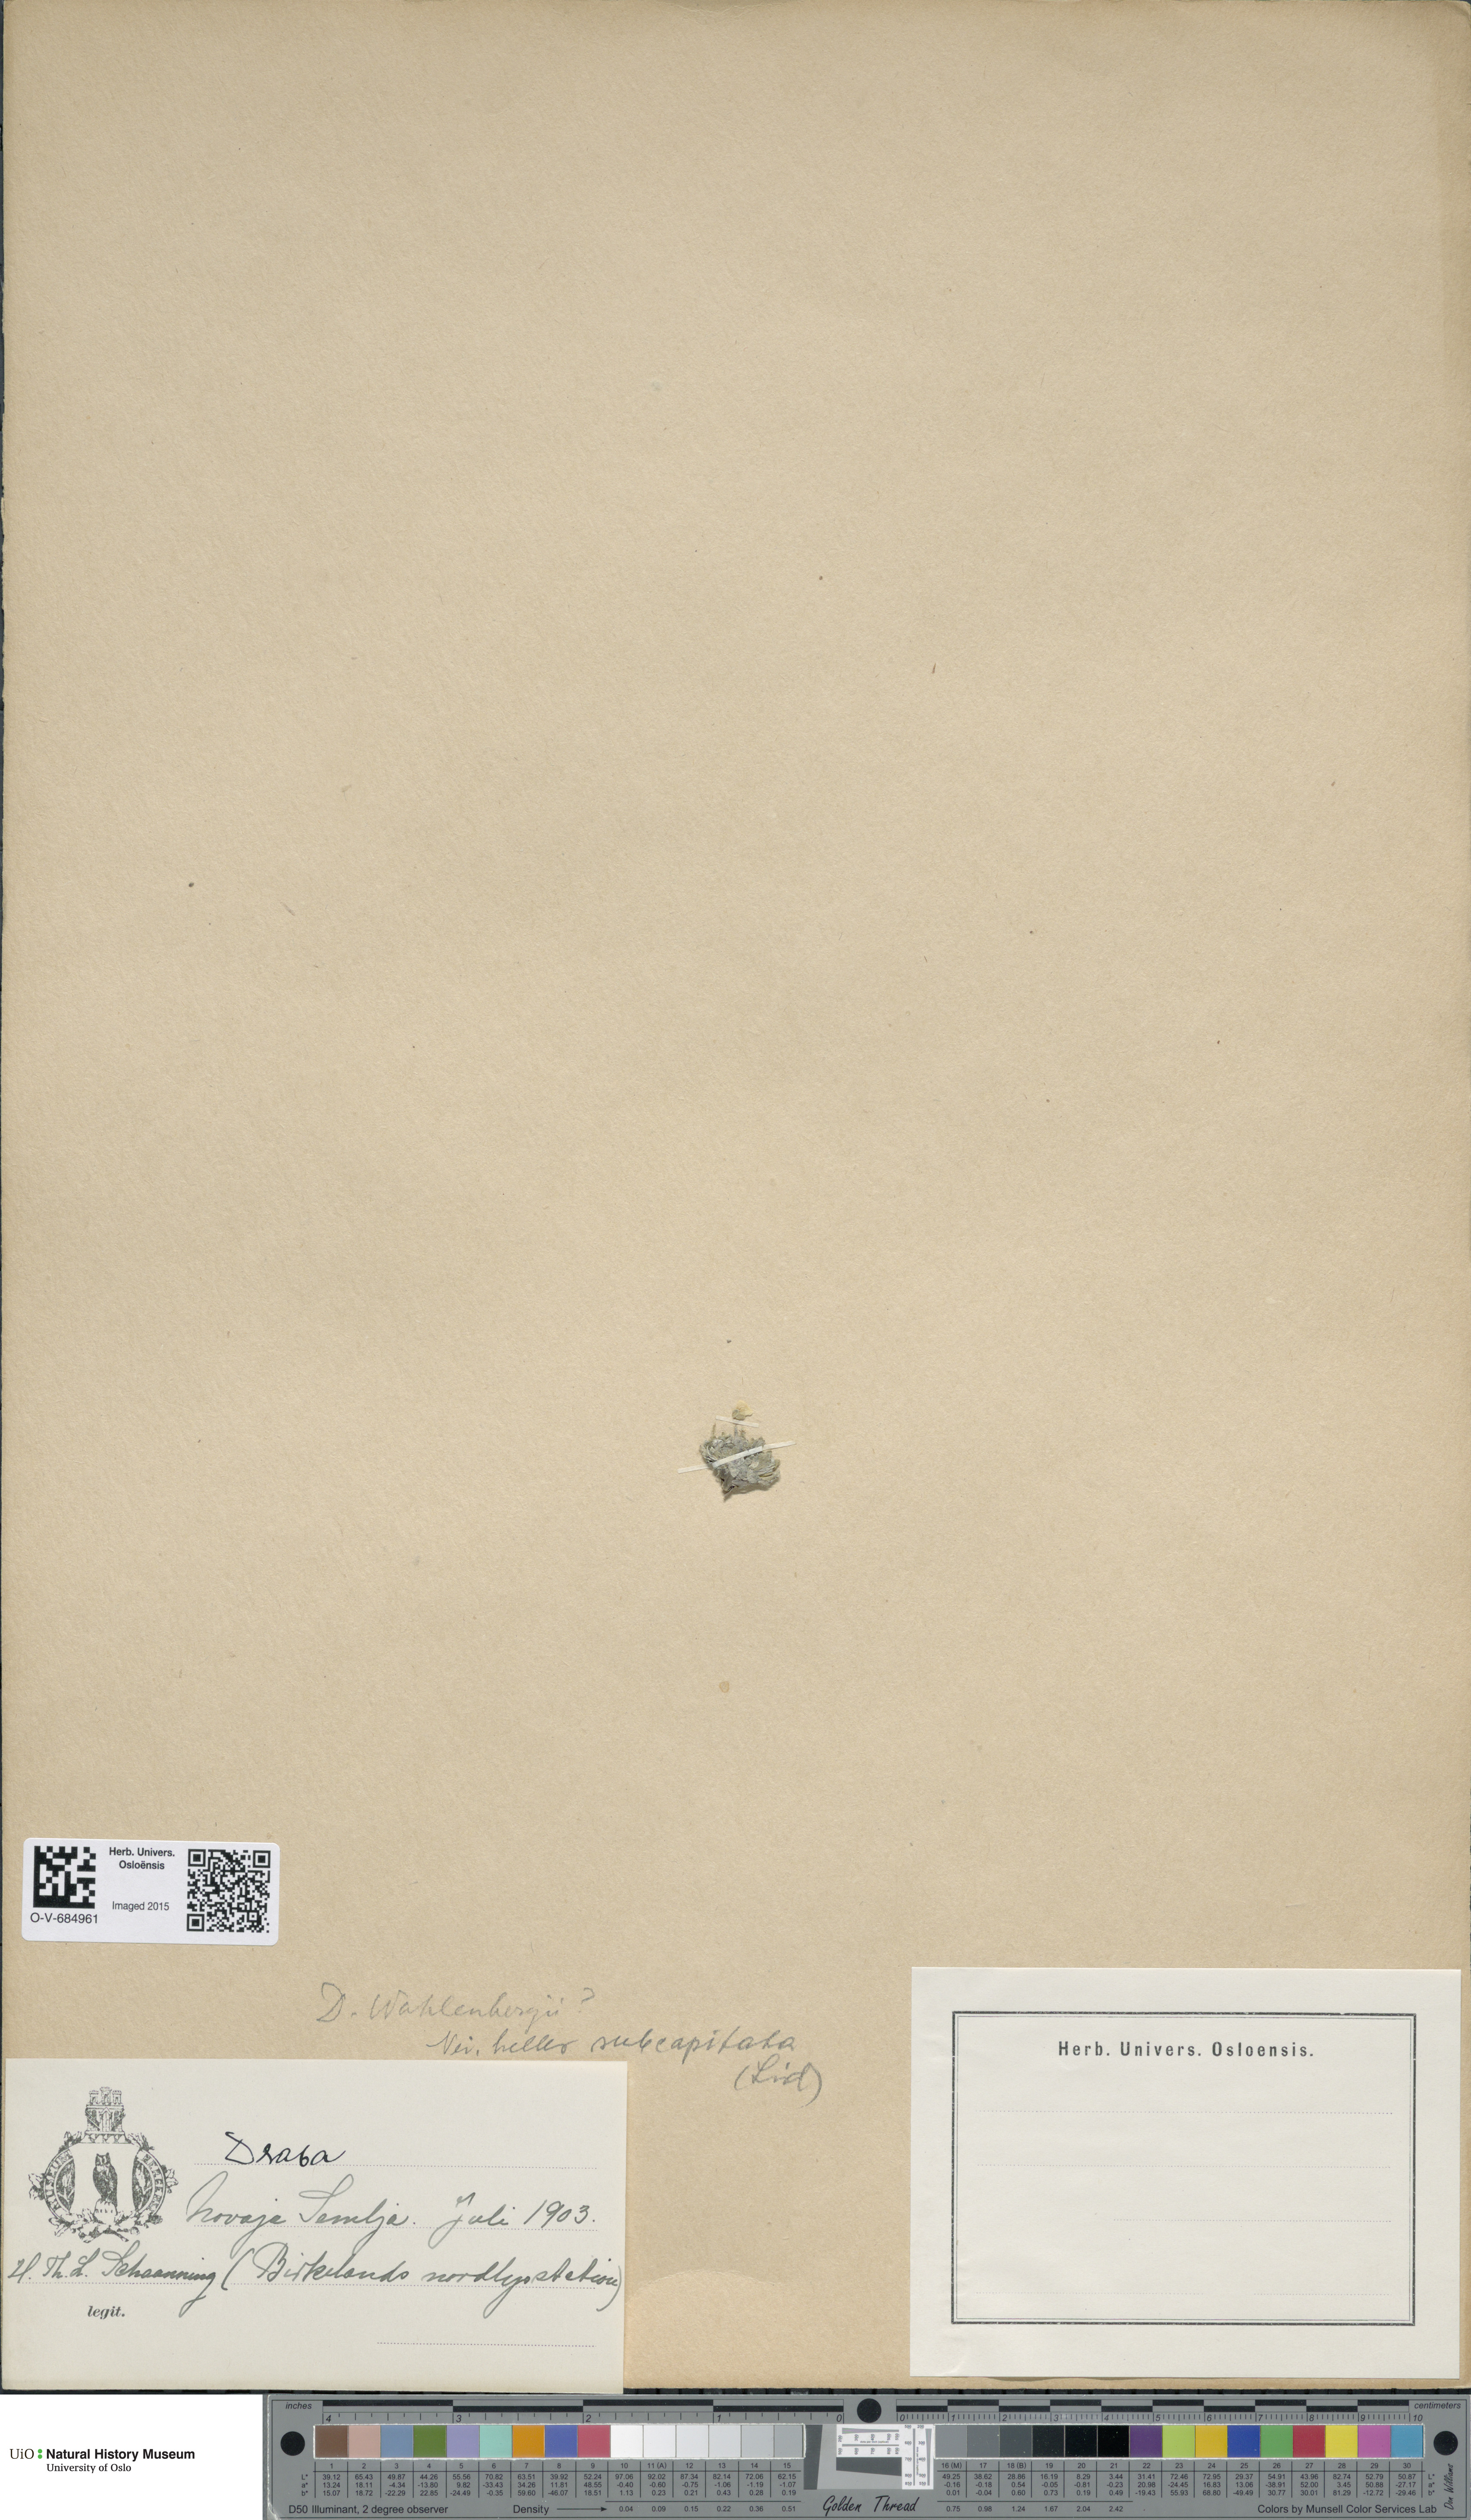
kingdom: Plantae
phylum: Tracheophyta
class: Magnoliopsida
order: Brassicales
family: Brassicaceae
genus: Draba
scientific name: Draba subcapitata
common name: Ellesmere island draba
